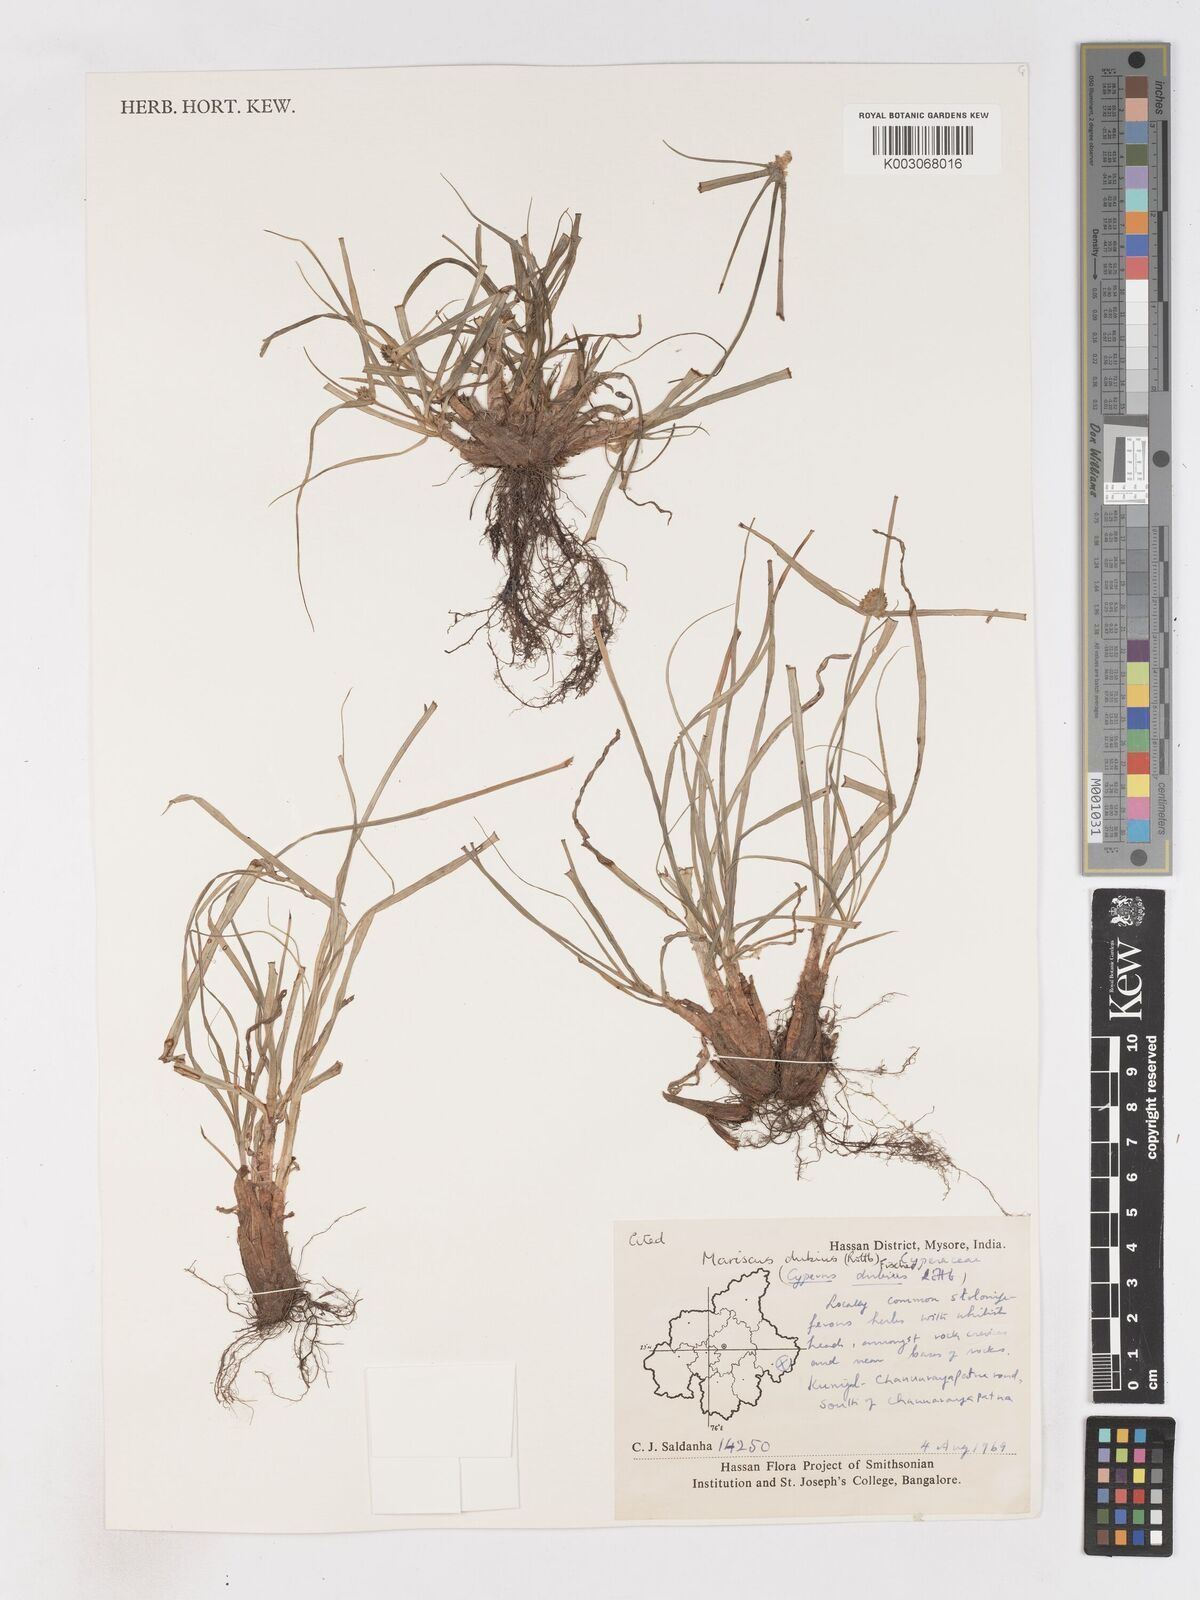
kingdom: Plantae
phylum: Tracheophyta
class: Liliopsida
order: Poales
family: Cyperaceae
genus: Cyperus
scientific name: Cyperus dubius
